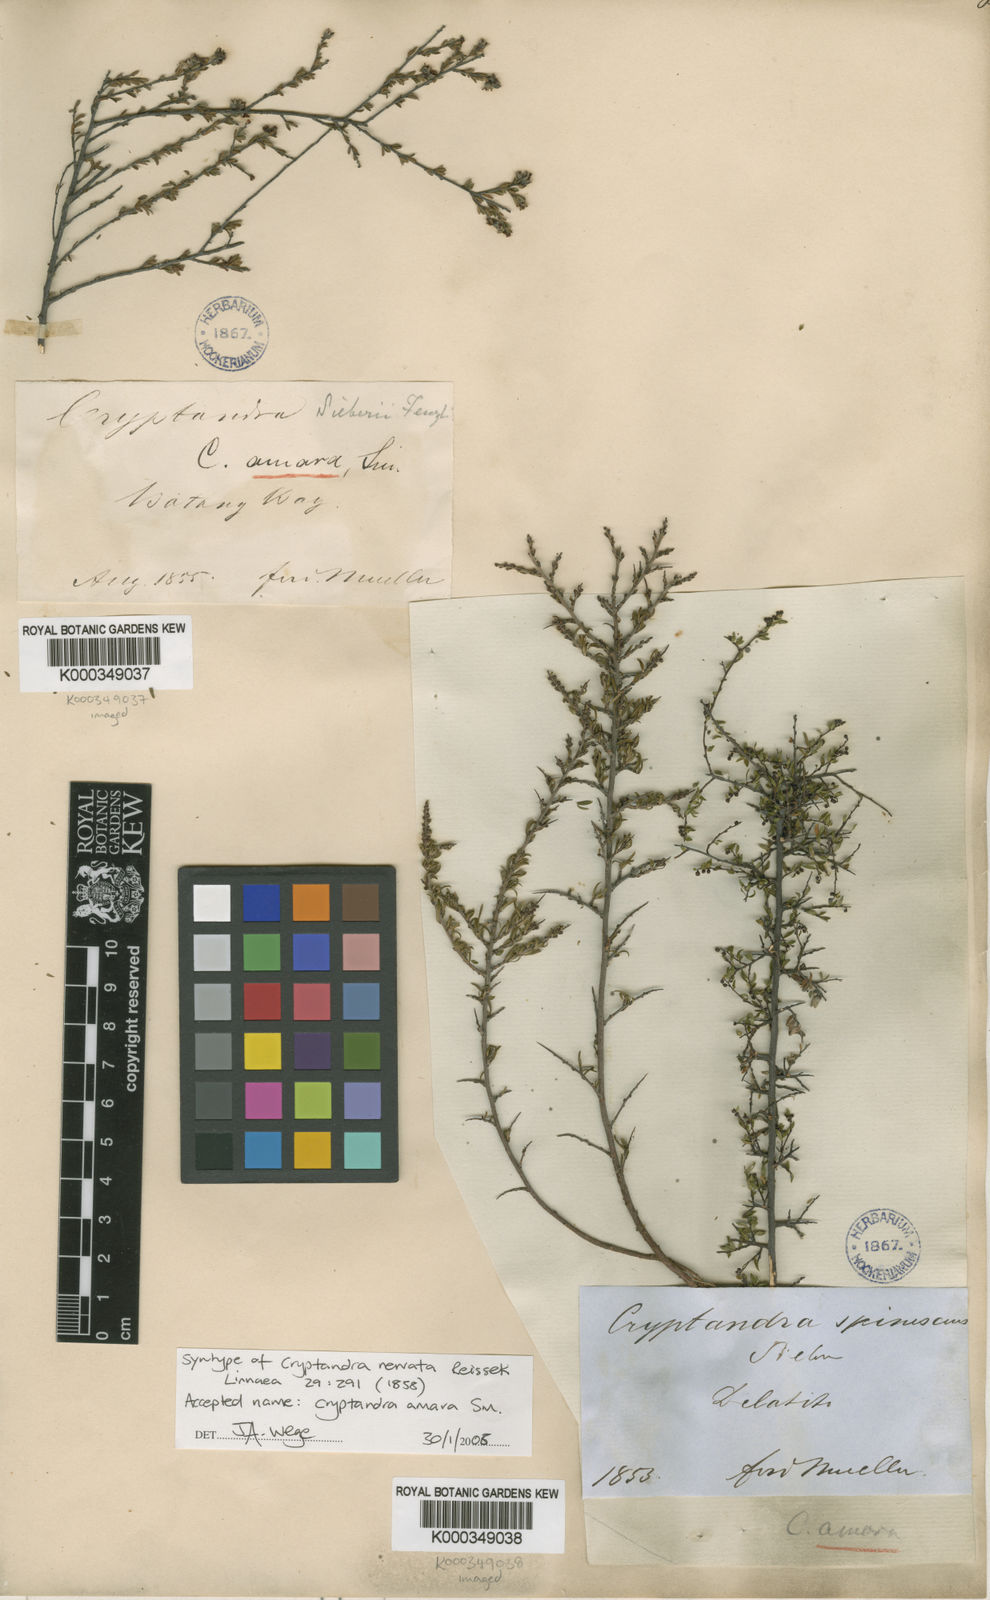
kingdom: Plantae
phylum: Tracheophyta
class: Magnoliopsida
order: Rosales
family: Rhamnaceae
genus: Cryptandra
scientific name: Cryptandra amara
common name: Bitter cryptandra
